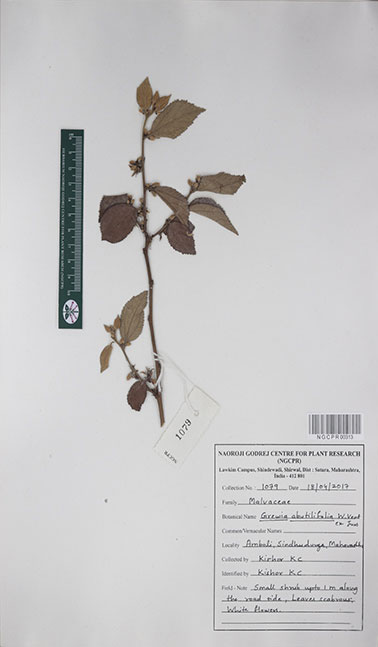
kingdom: Plantae
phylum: Tracheophyta
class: Magnoliopsida
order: Malvales
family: Malvaceae
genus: Grewia
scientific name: Grewia abutilifolia
